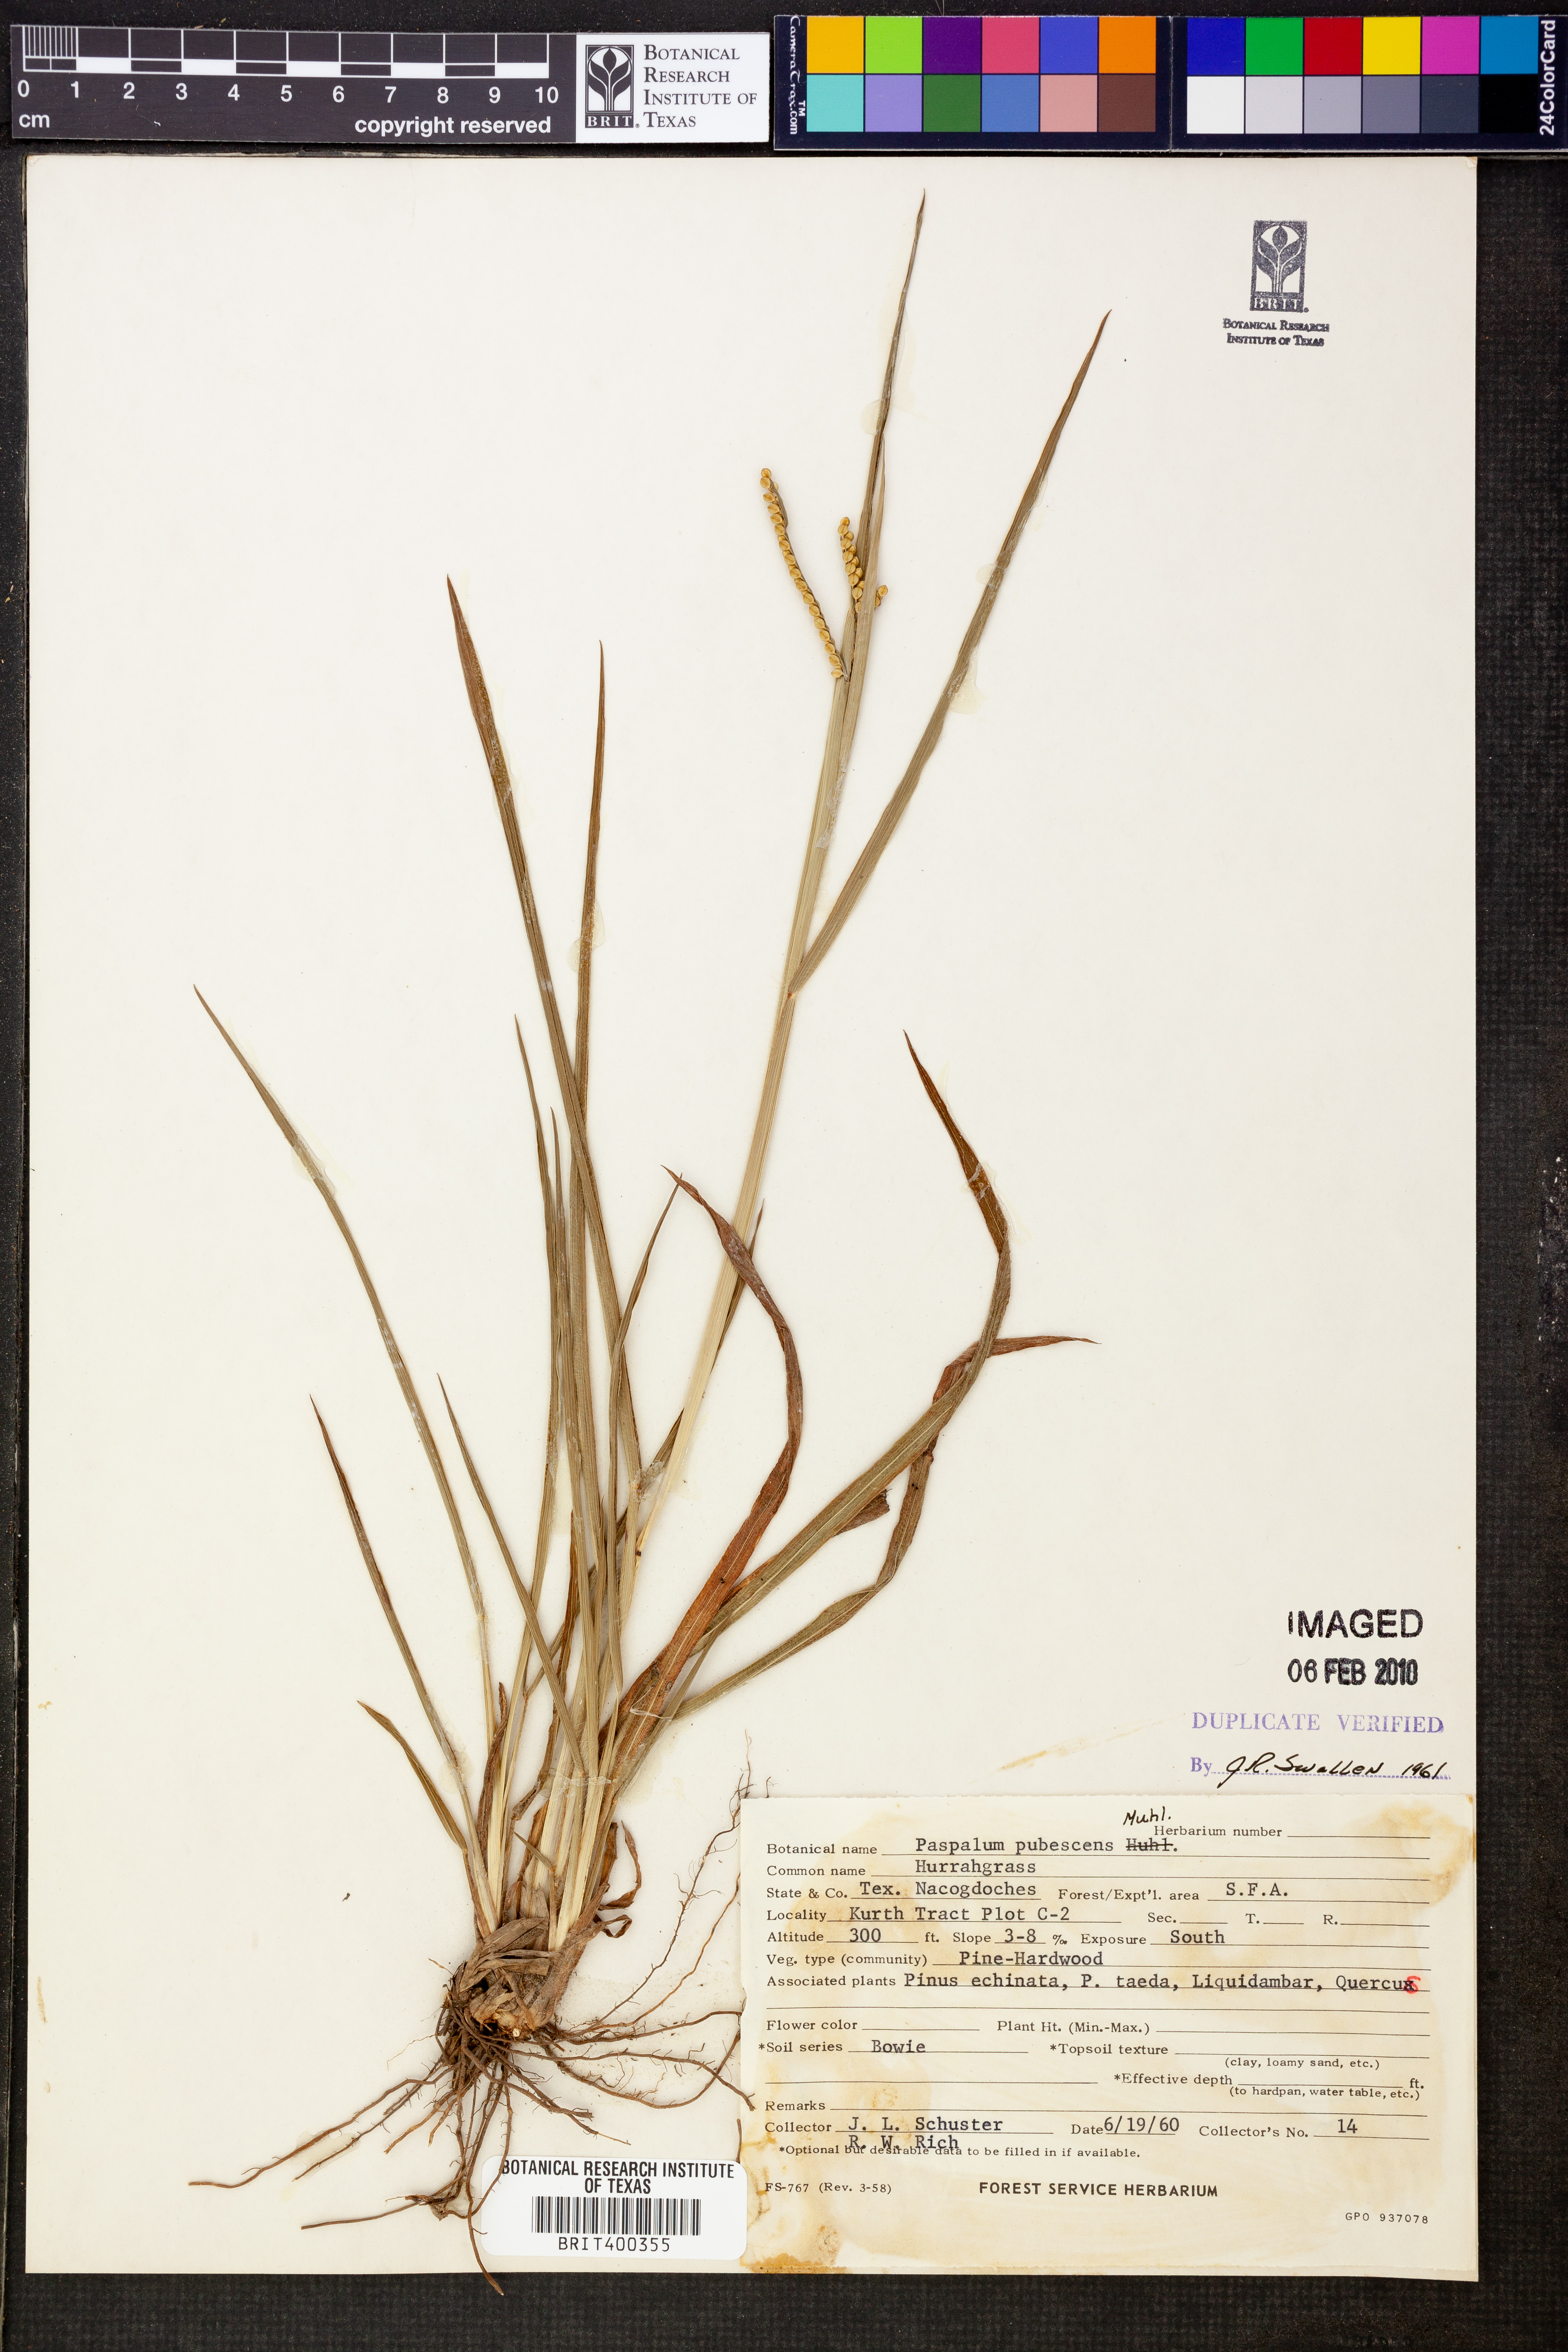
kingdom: Plantae
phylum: Tracheophyta
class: Liliopsida
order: Poales
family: Poaceae
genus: Paspalum
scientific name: Paspalum setaceum
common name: Slender paspalum
